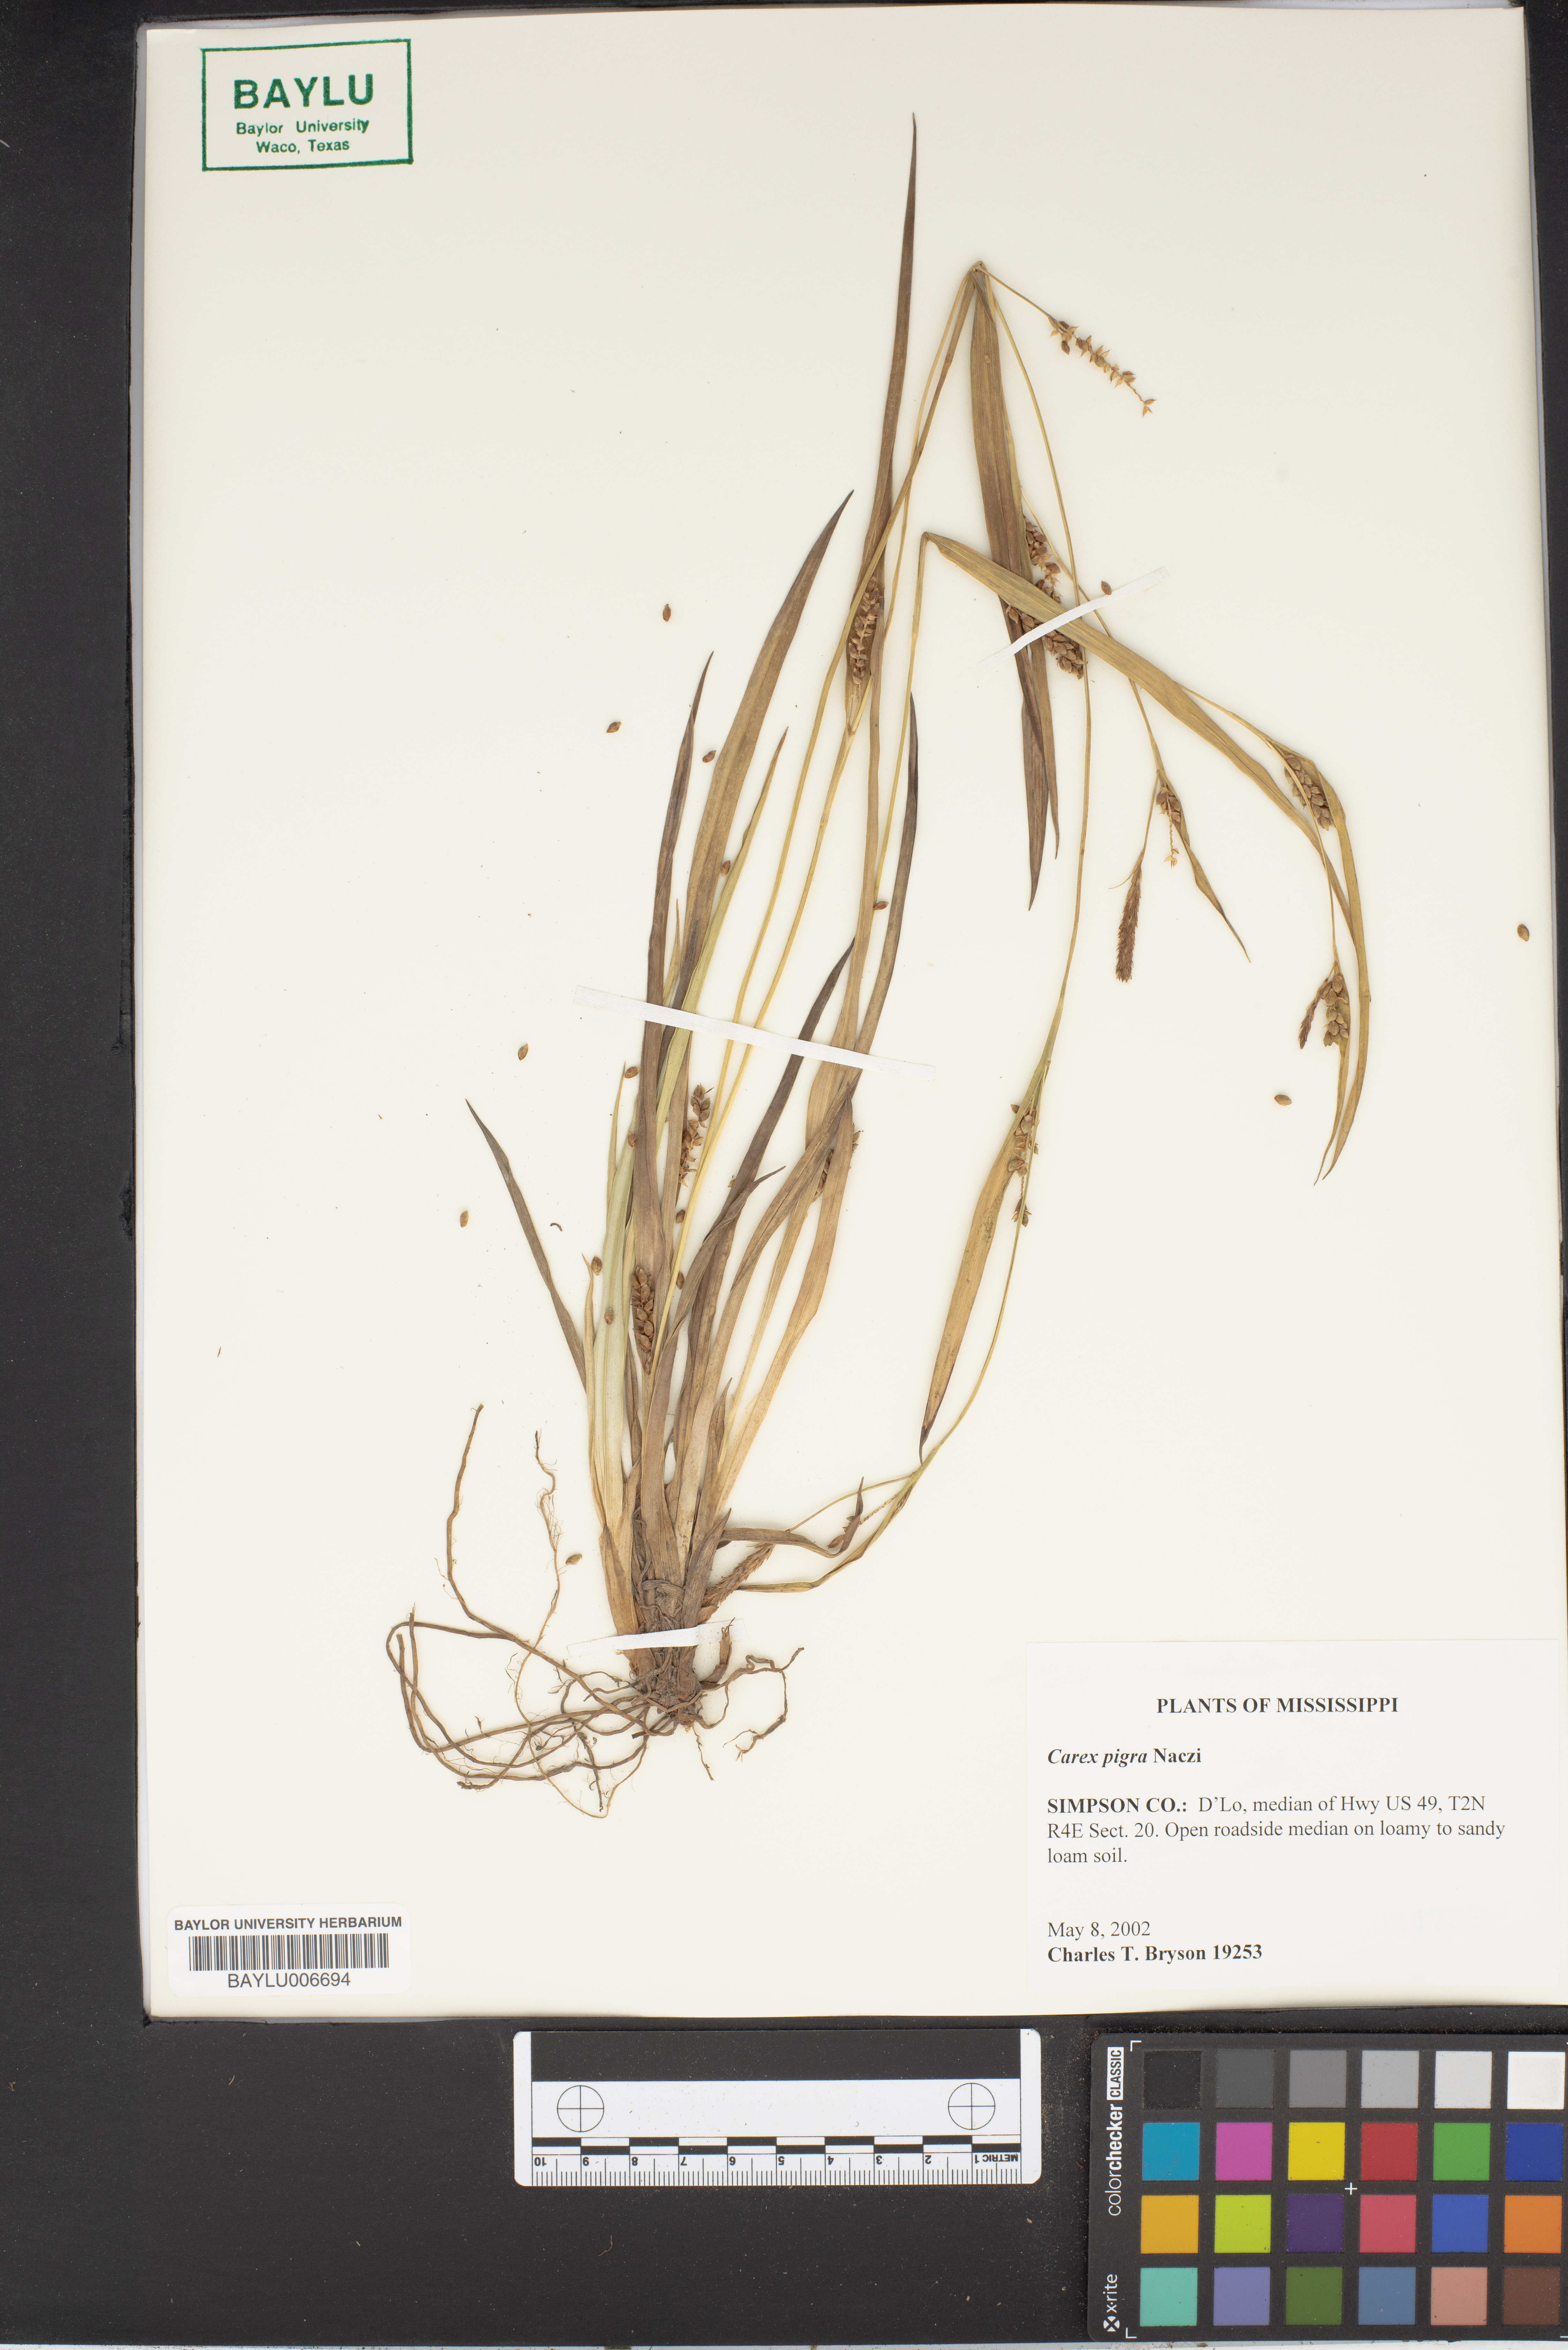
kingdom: Plantae
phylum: Tracheophyta
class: Liliopsida
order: Poales
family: Cyperaceae
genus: Carex
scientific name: Carex pigra
